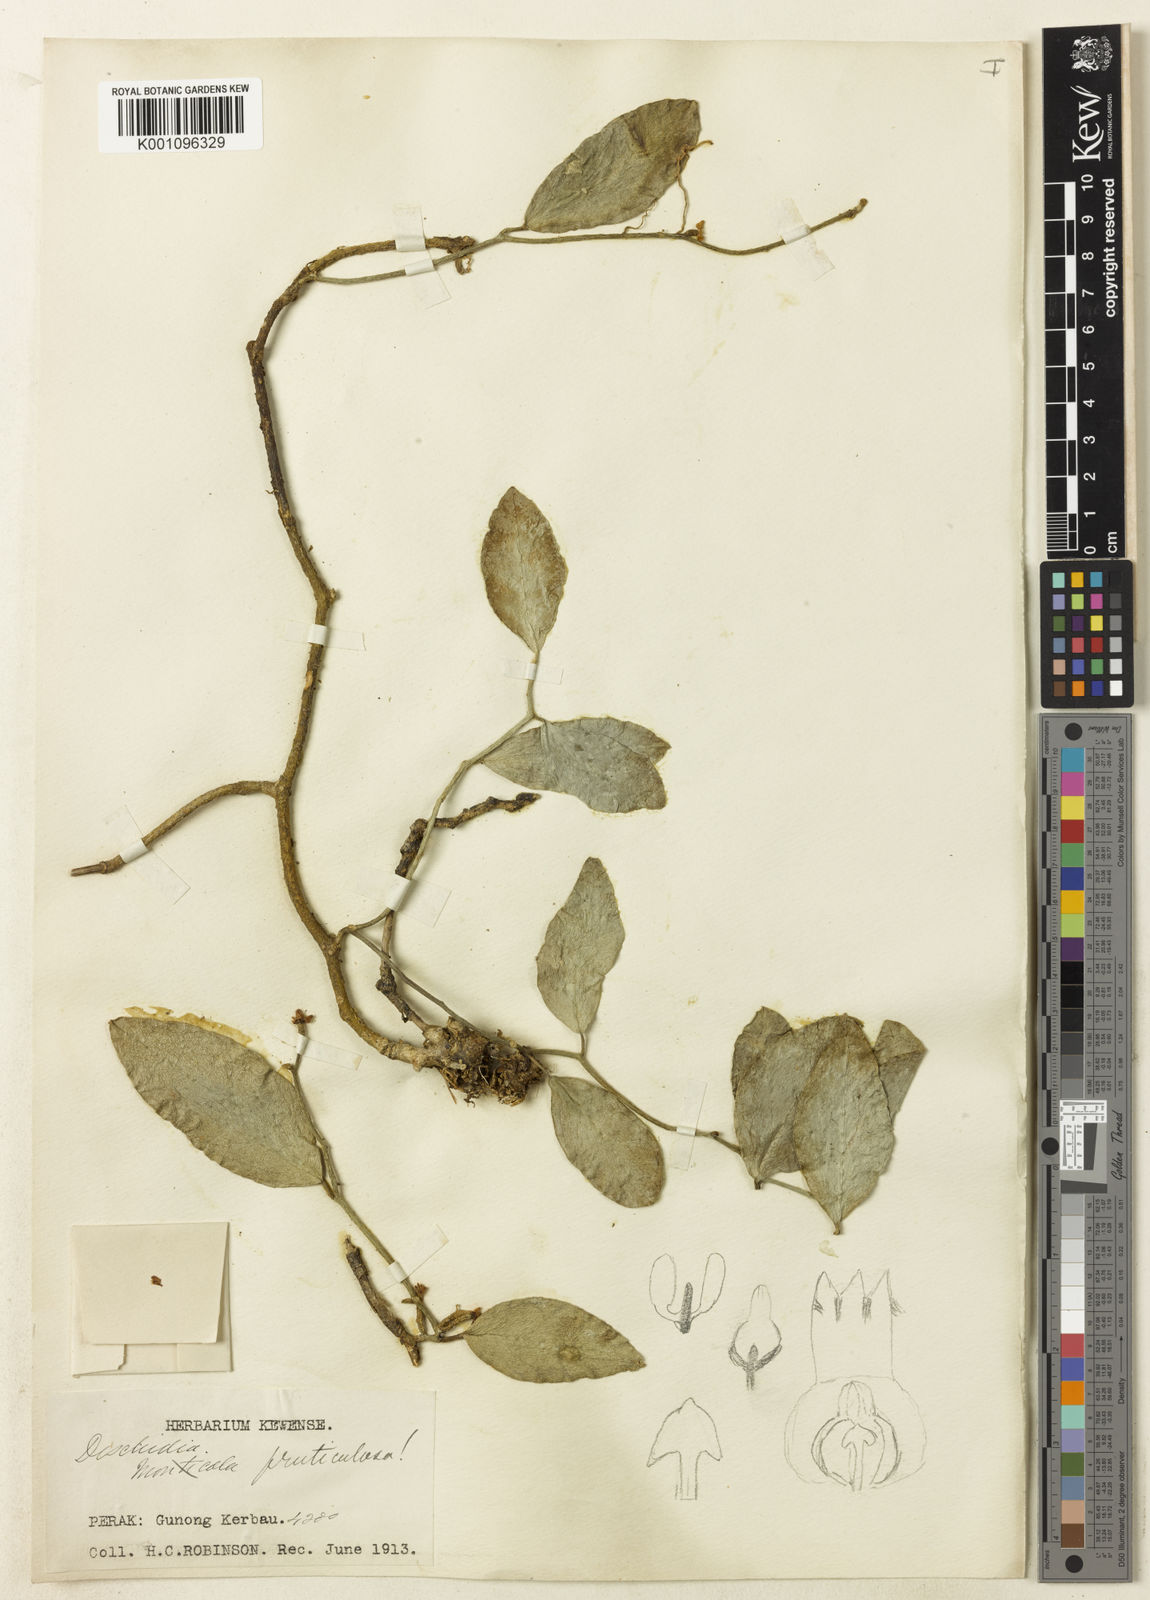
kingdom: Plantae
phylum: Tracheophyta
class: Magnoliopsida
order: Gentianales
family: Apocynaceae
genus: Dischidia
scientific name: Dischidia fruticulosa
